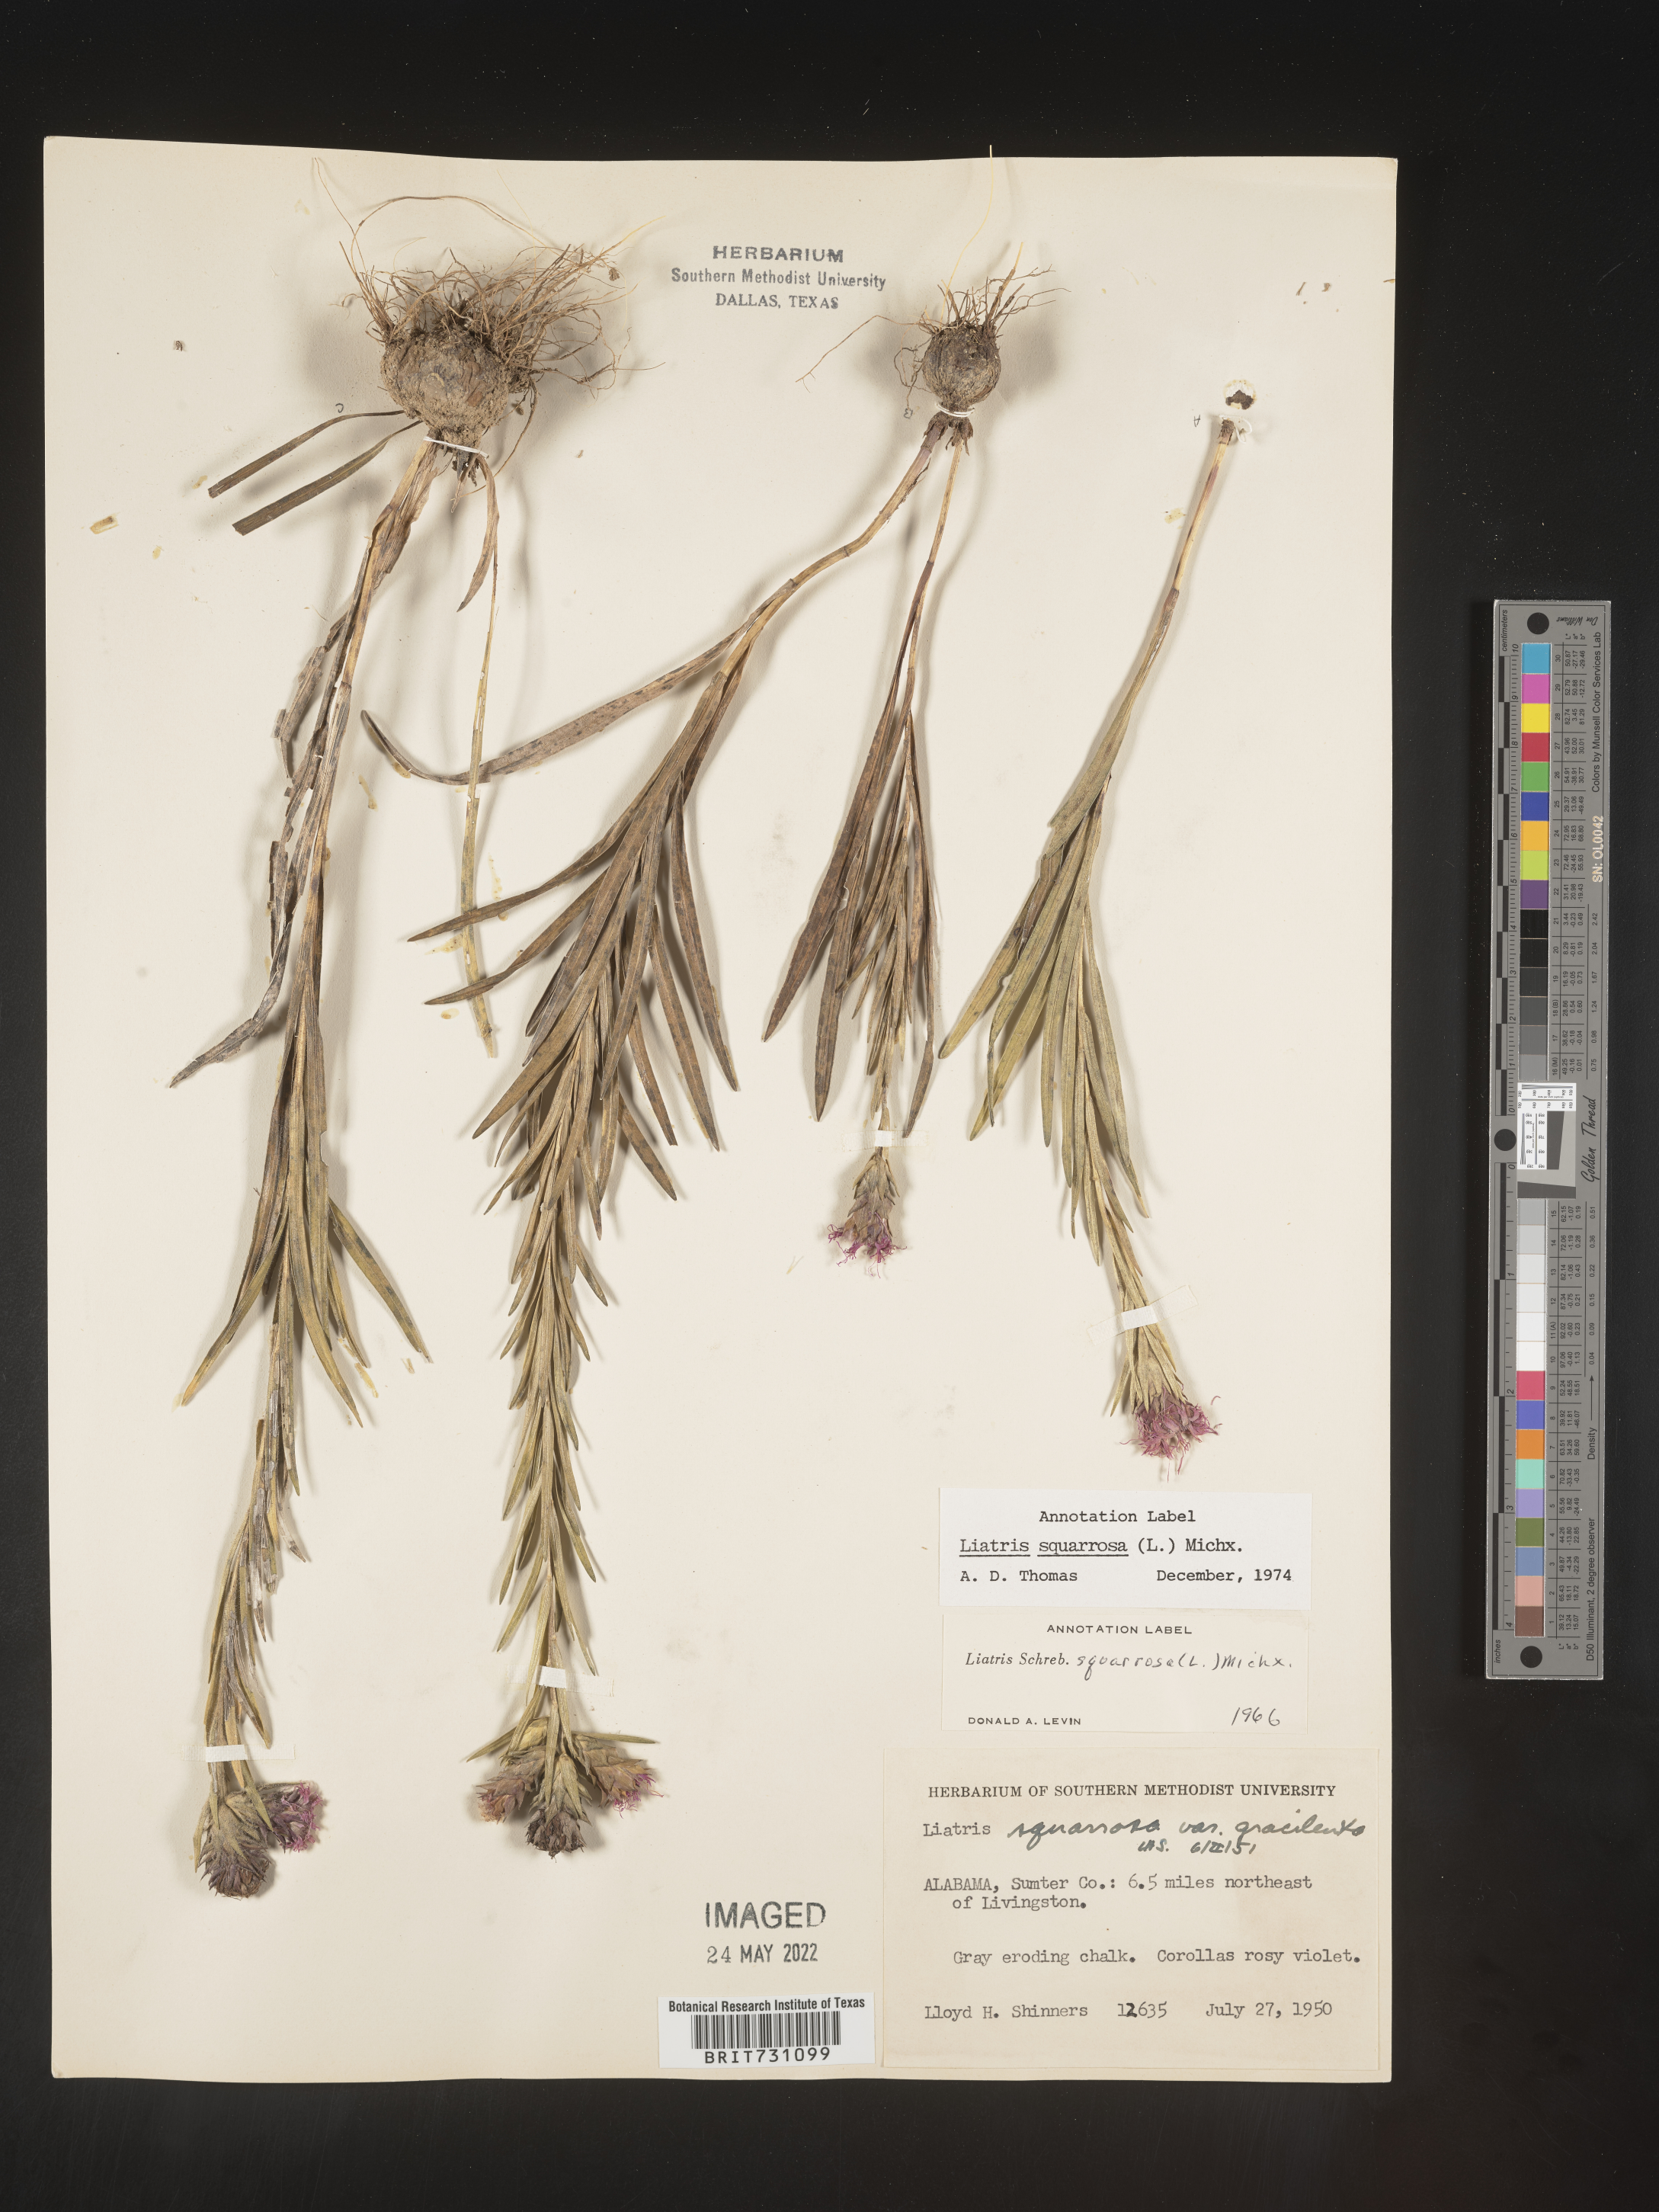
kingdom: Plantae
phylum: Tracheophyta
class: Magnoliopsida
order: Asterales
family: Asteraceae
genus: Liatris
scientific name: Liatris squarrosa
